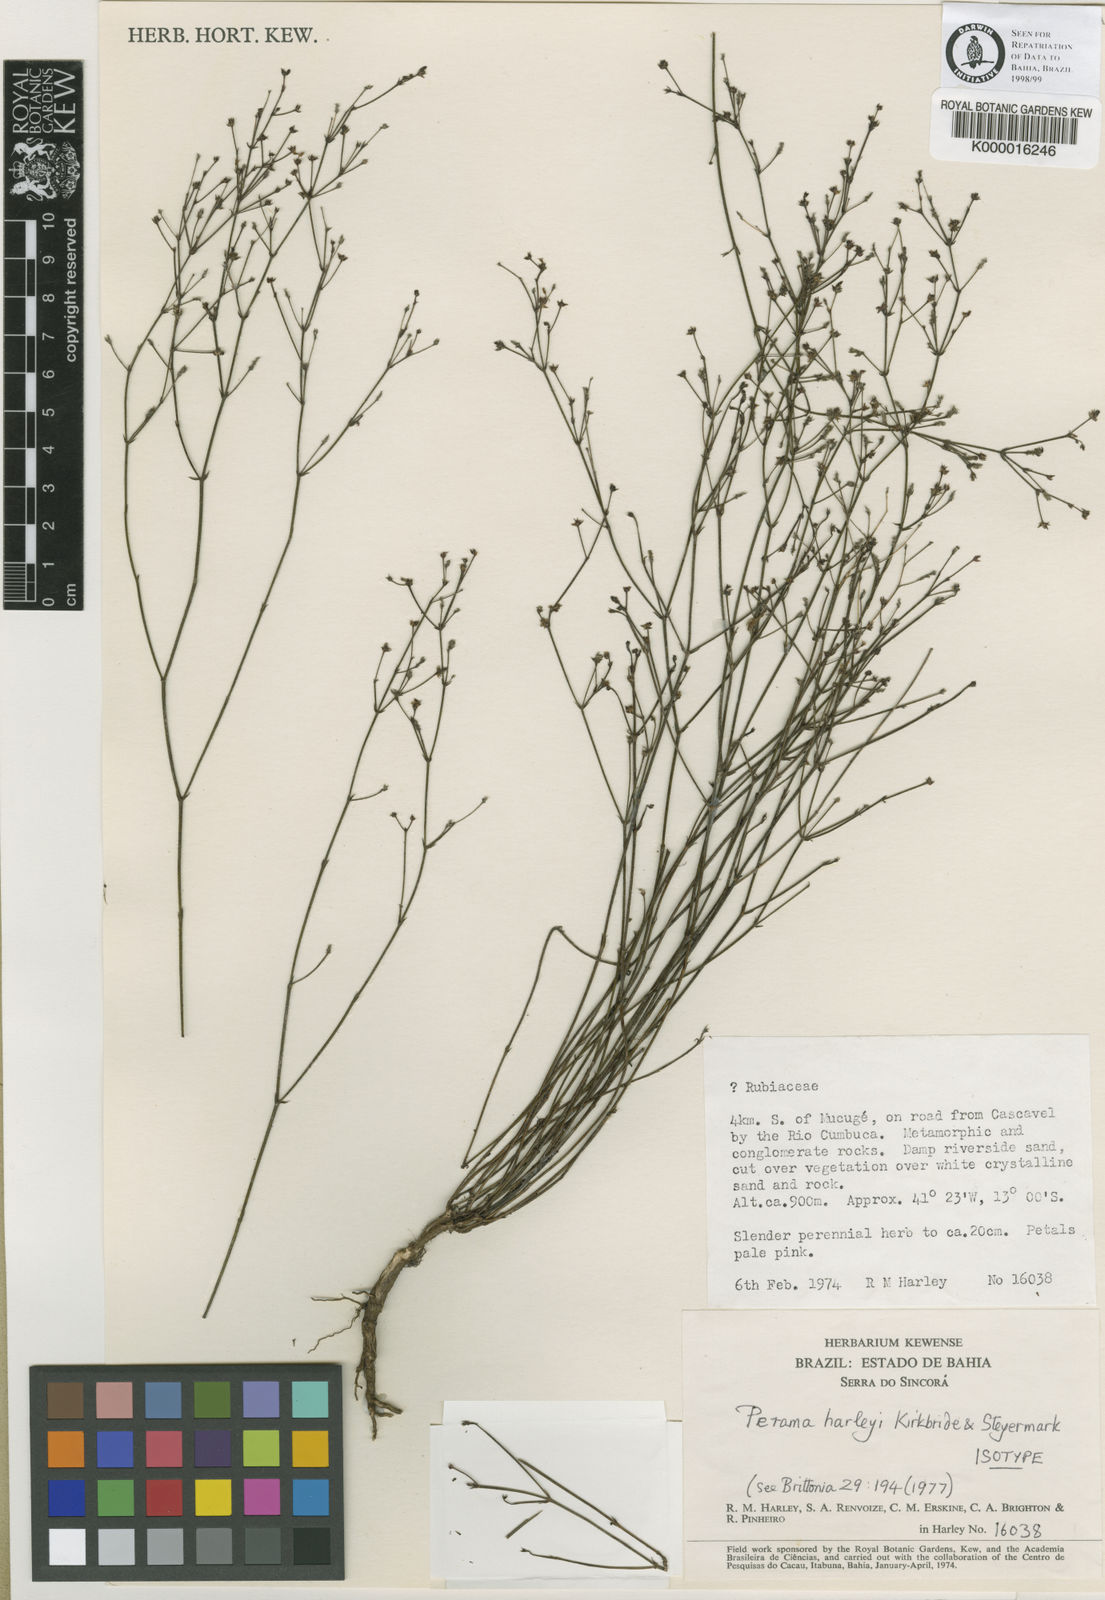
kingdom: Plantae
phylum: Tracheophyta
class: Magnoliopsida
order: Gentianales
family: Rubiaceae
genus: Perama
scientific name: Perama harleyi
